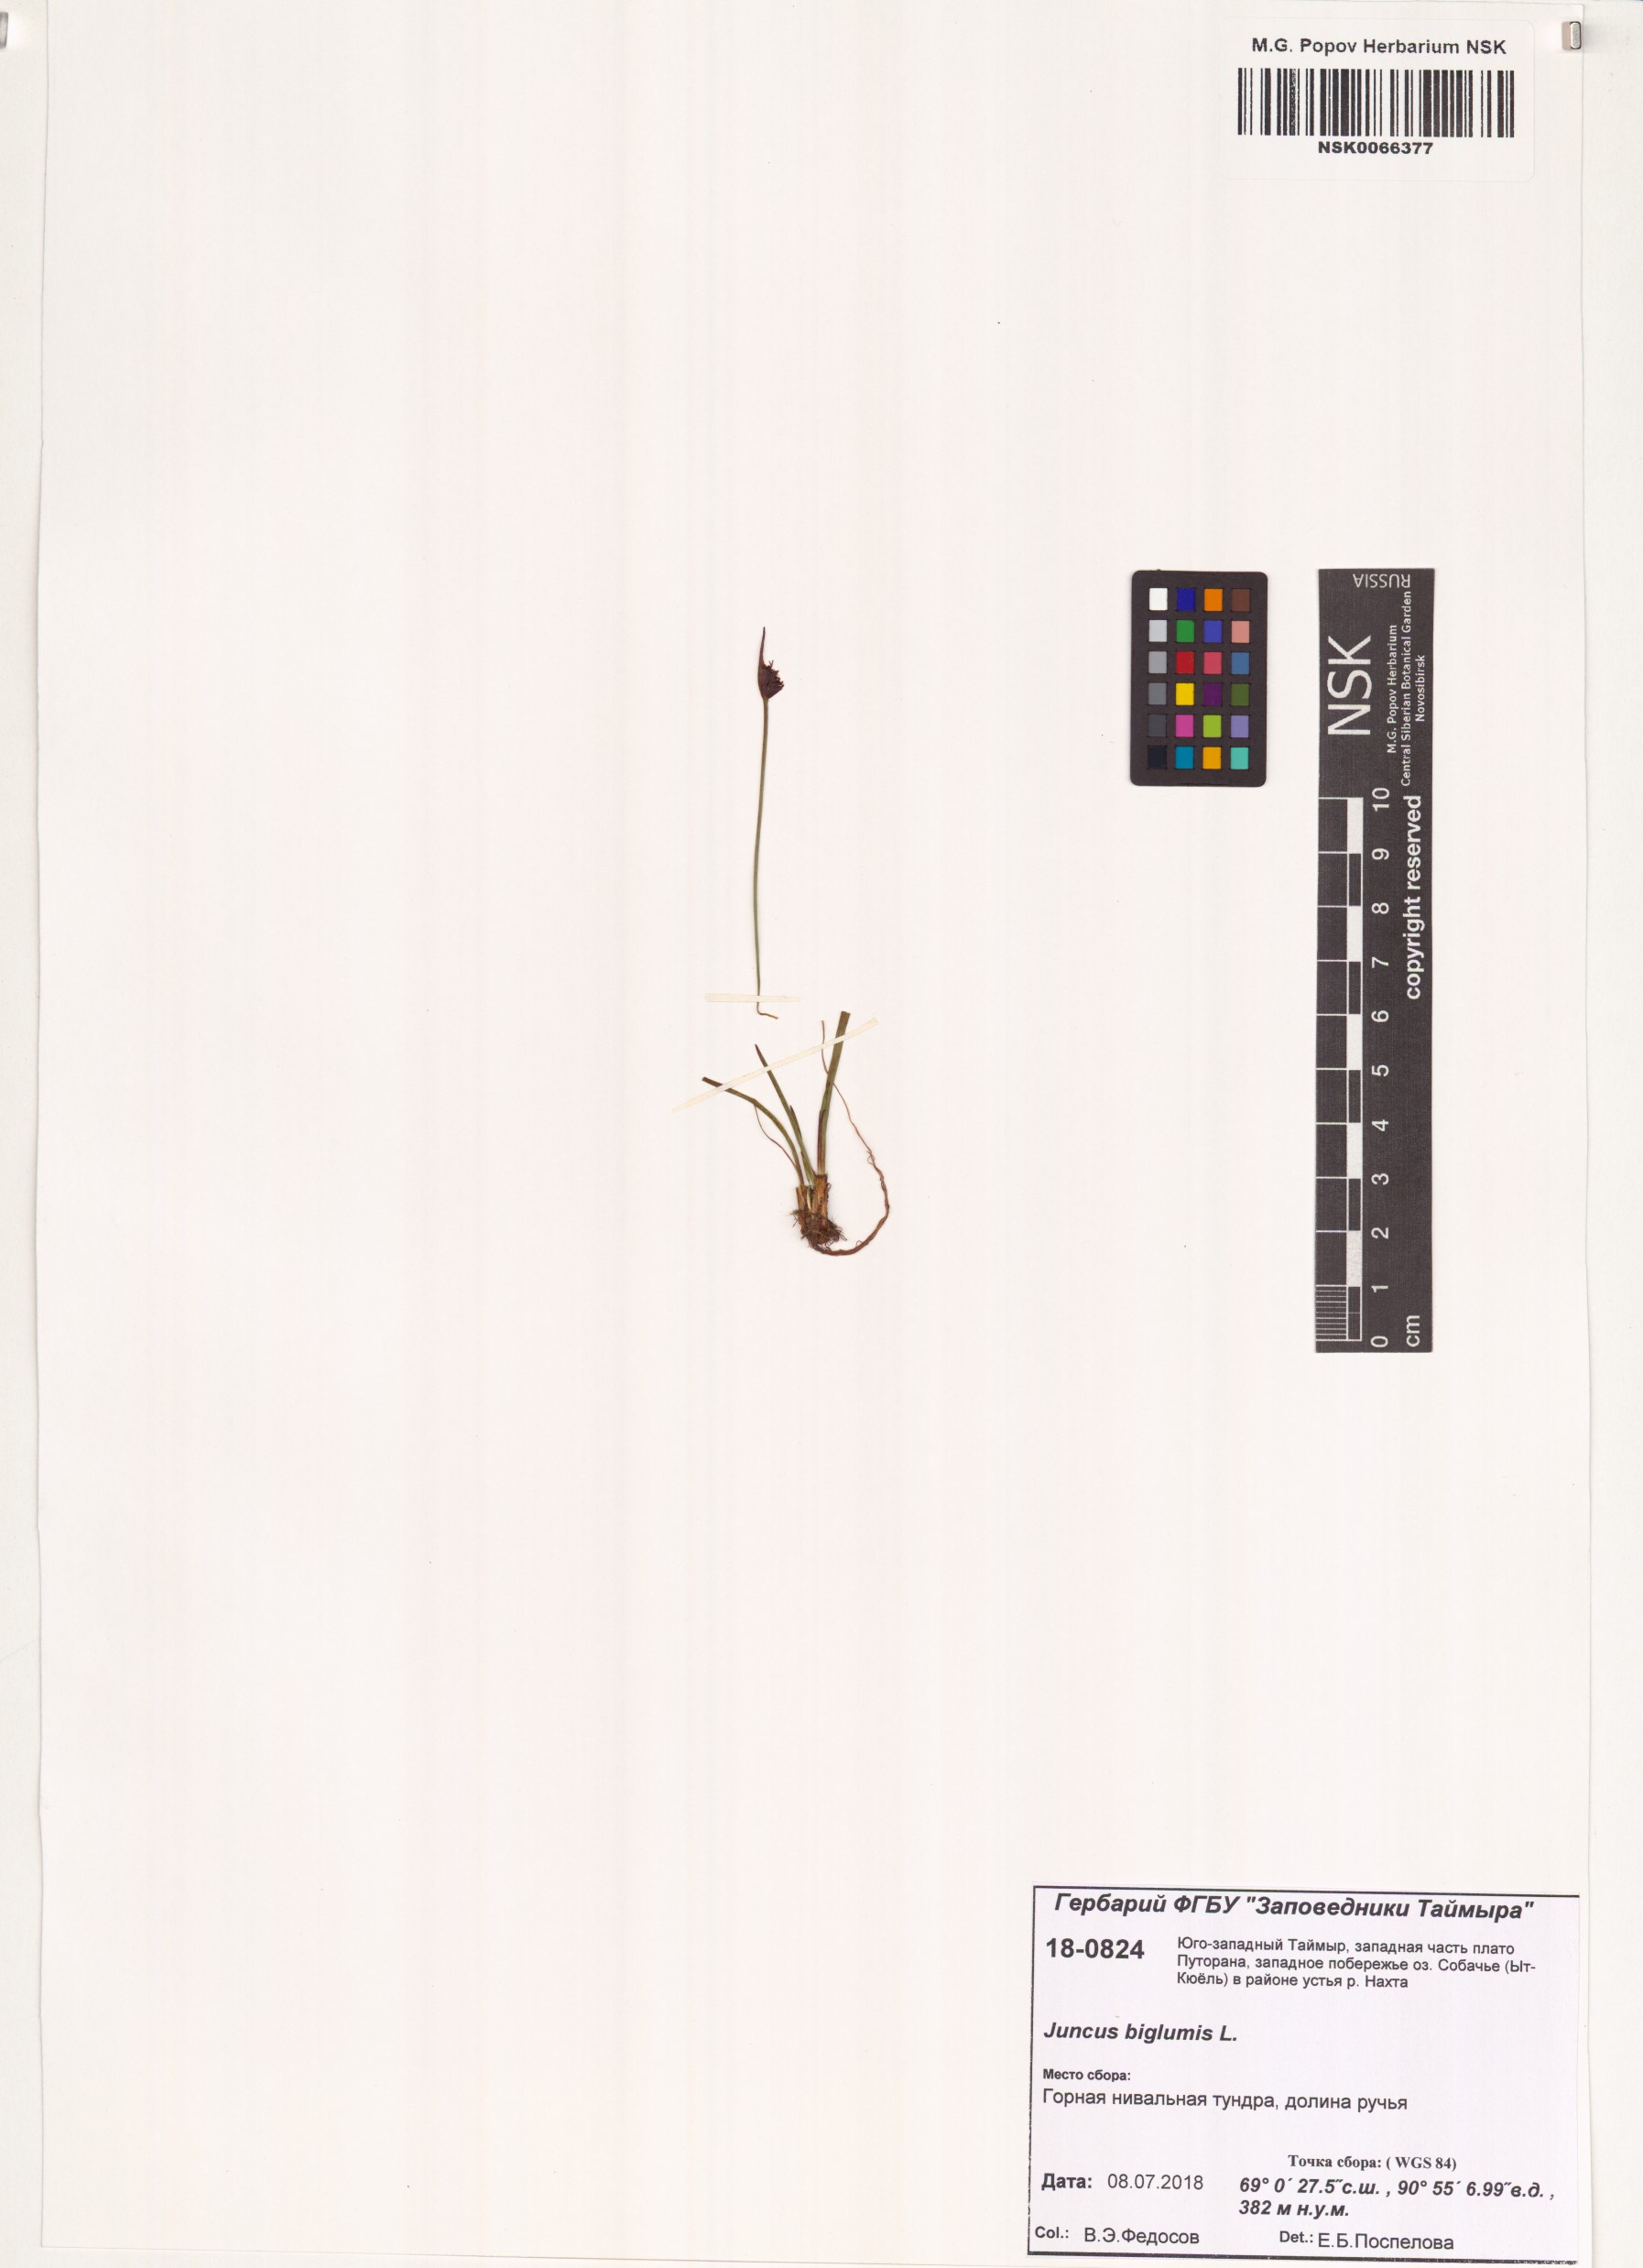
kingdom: Plantae
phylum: Tracheophyta
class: Liliopsida
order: Poales
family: Juncaceae
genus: Juncus
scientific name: Juncus biglumis
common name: Two-flowered rush
